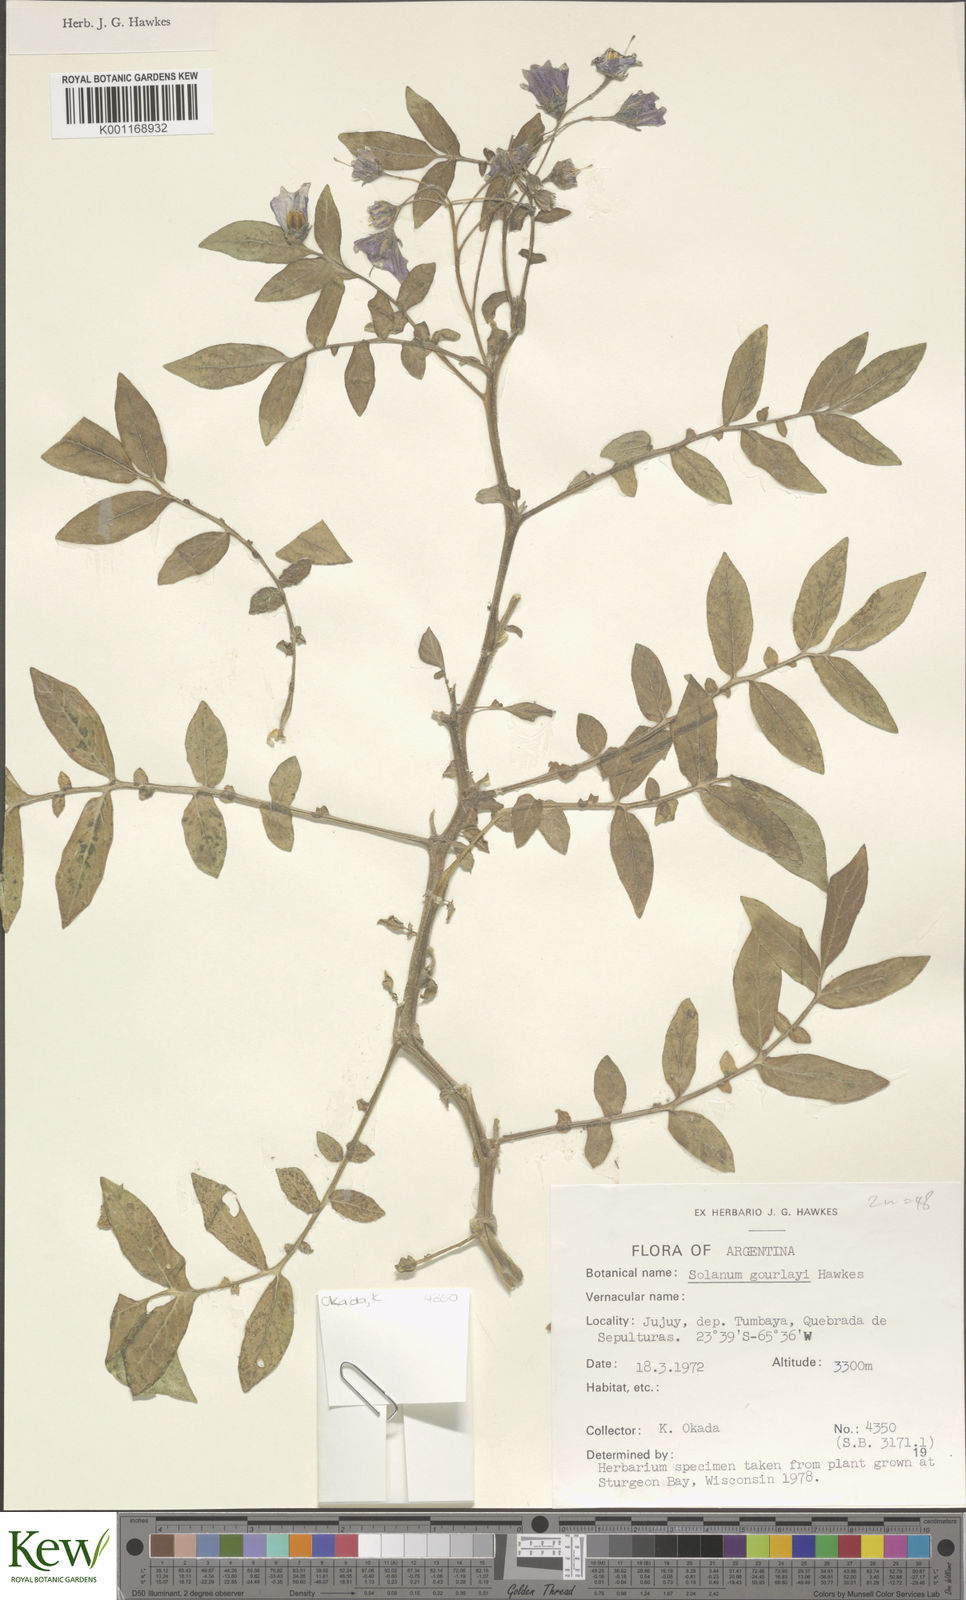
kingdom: Plantae
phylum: Tracheophyta
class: Magnoliopsida
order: Solanales
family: Solanaceae
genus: Solanum
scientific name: Solanum brevicaule
